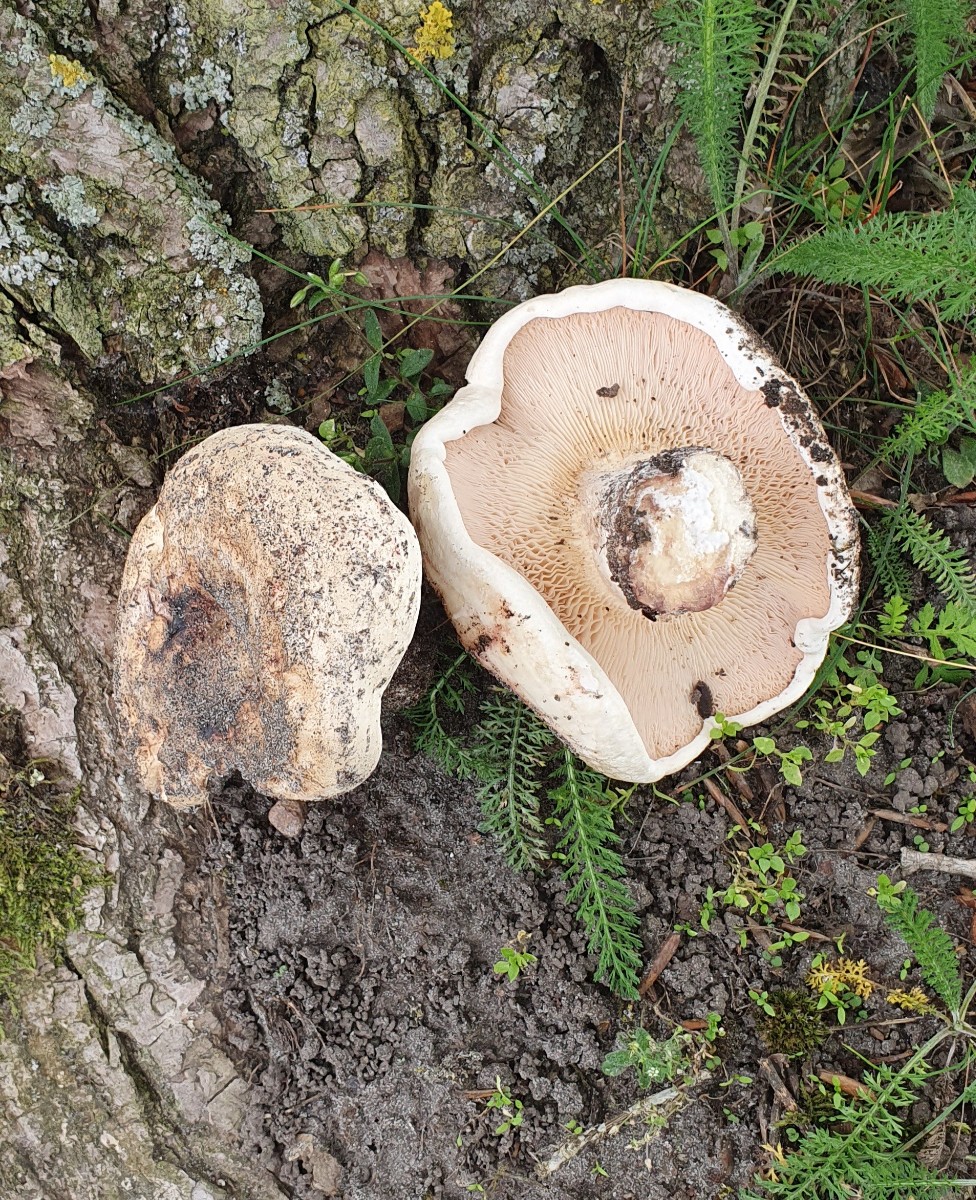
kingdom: Fungi
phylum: Basidiomycota
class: Agaricomycetes
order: Russulales
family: Russulaceae
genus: Lactarius
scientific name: Lactarius controversus
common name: rosabladet mælkehat
